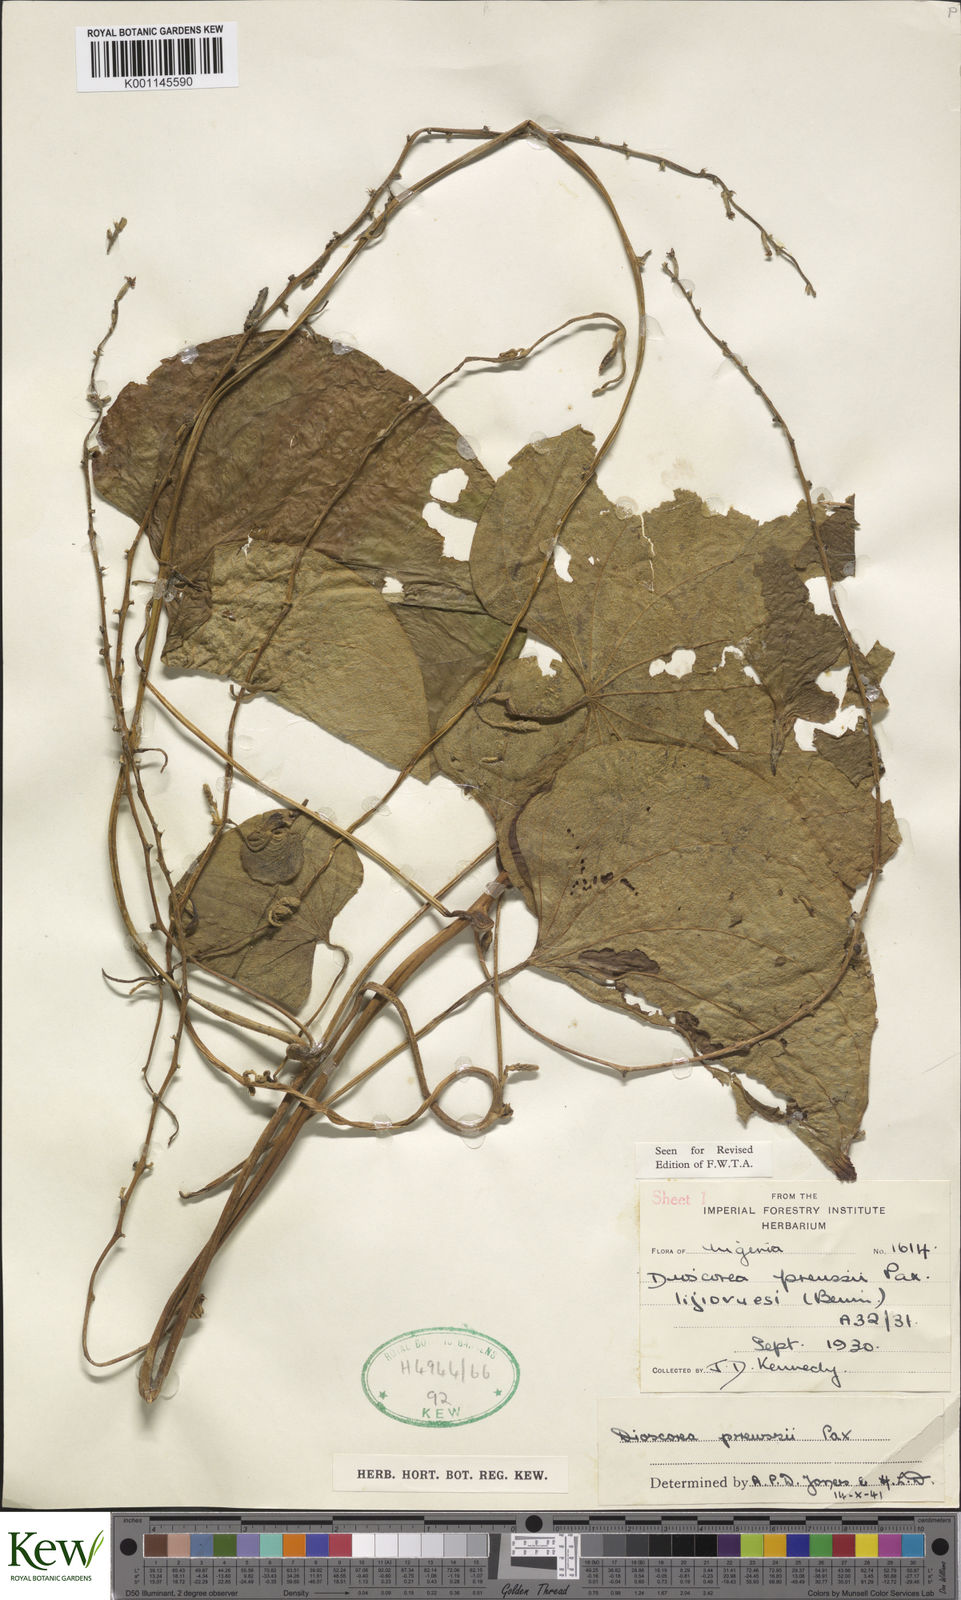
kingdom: Plantae
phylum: Tracheophyta
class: Liliopsida
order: Dioscoreales
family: Dioscoreaceae
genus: Dioscorea
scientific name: Dioscorea preussii
